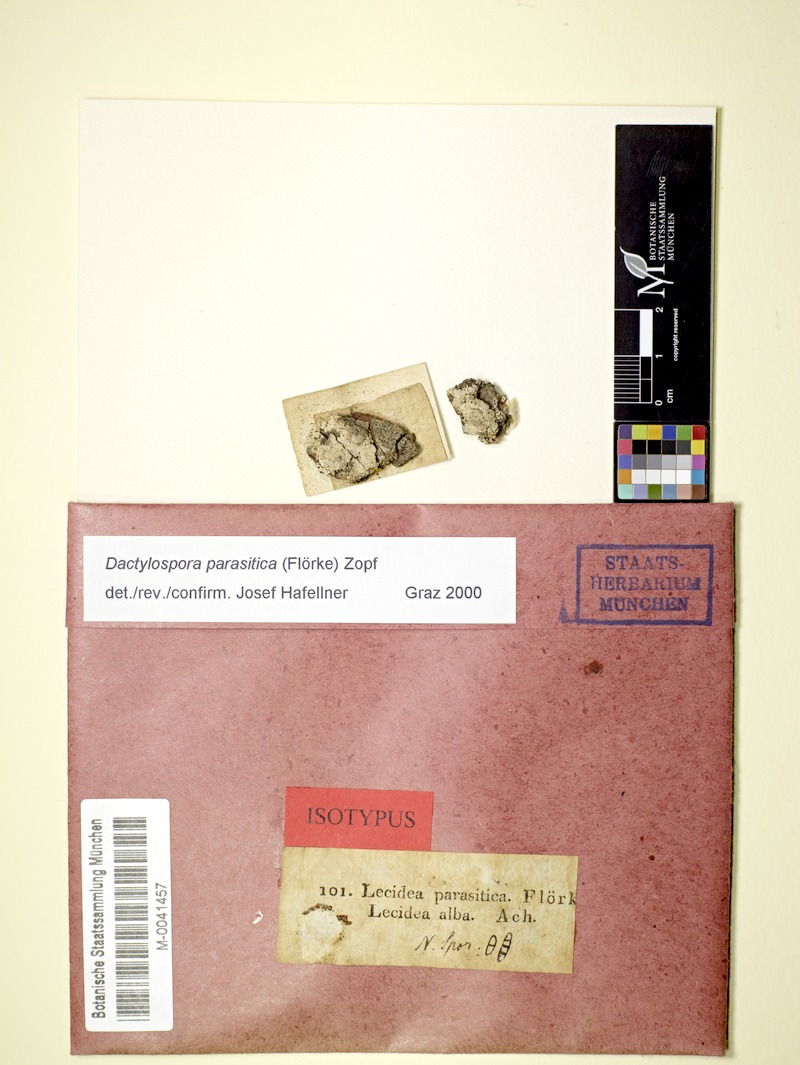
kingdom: Fungi
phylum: Ascomycota
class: Lecanoromycetes
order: Lecanorales
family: Dactylosporaceae
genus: Dactylospora
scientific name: Dactylospora parasitica
